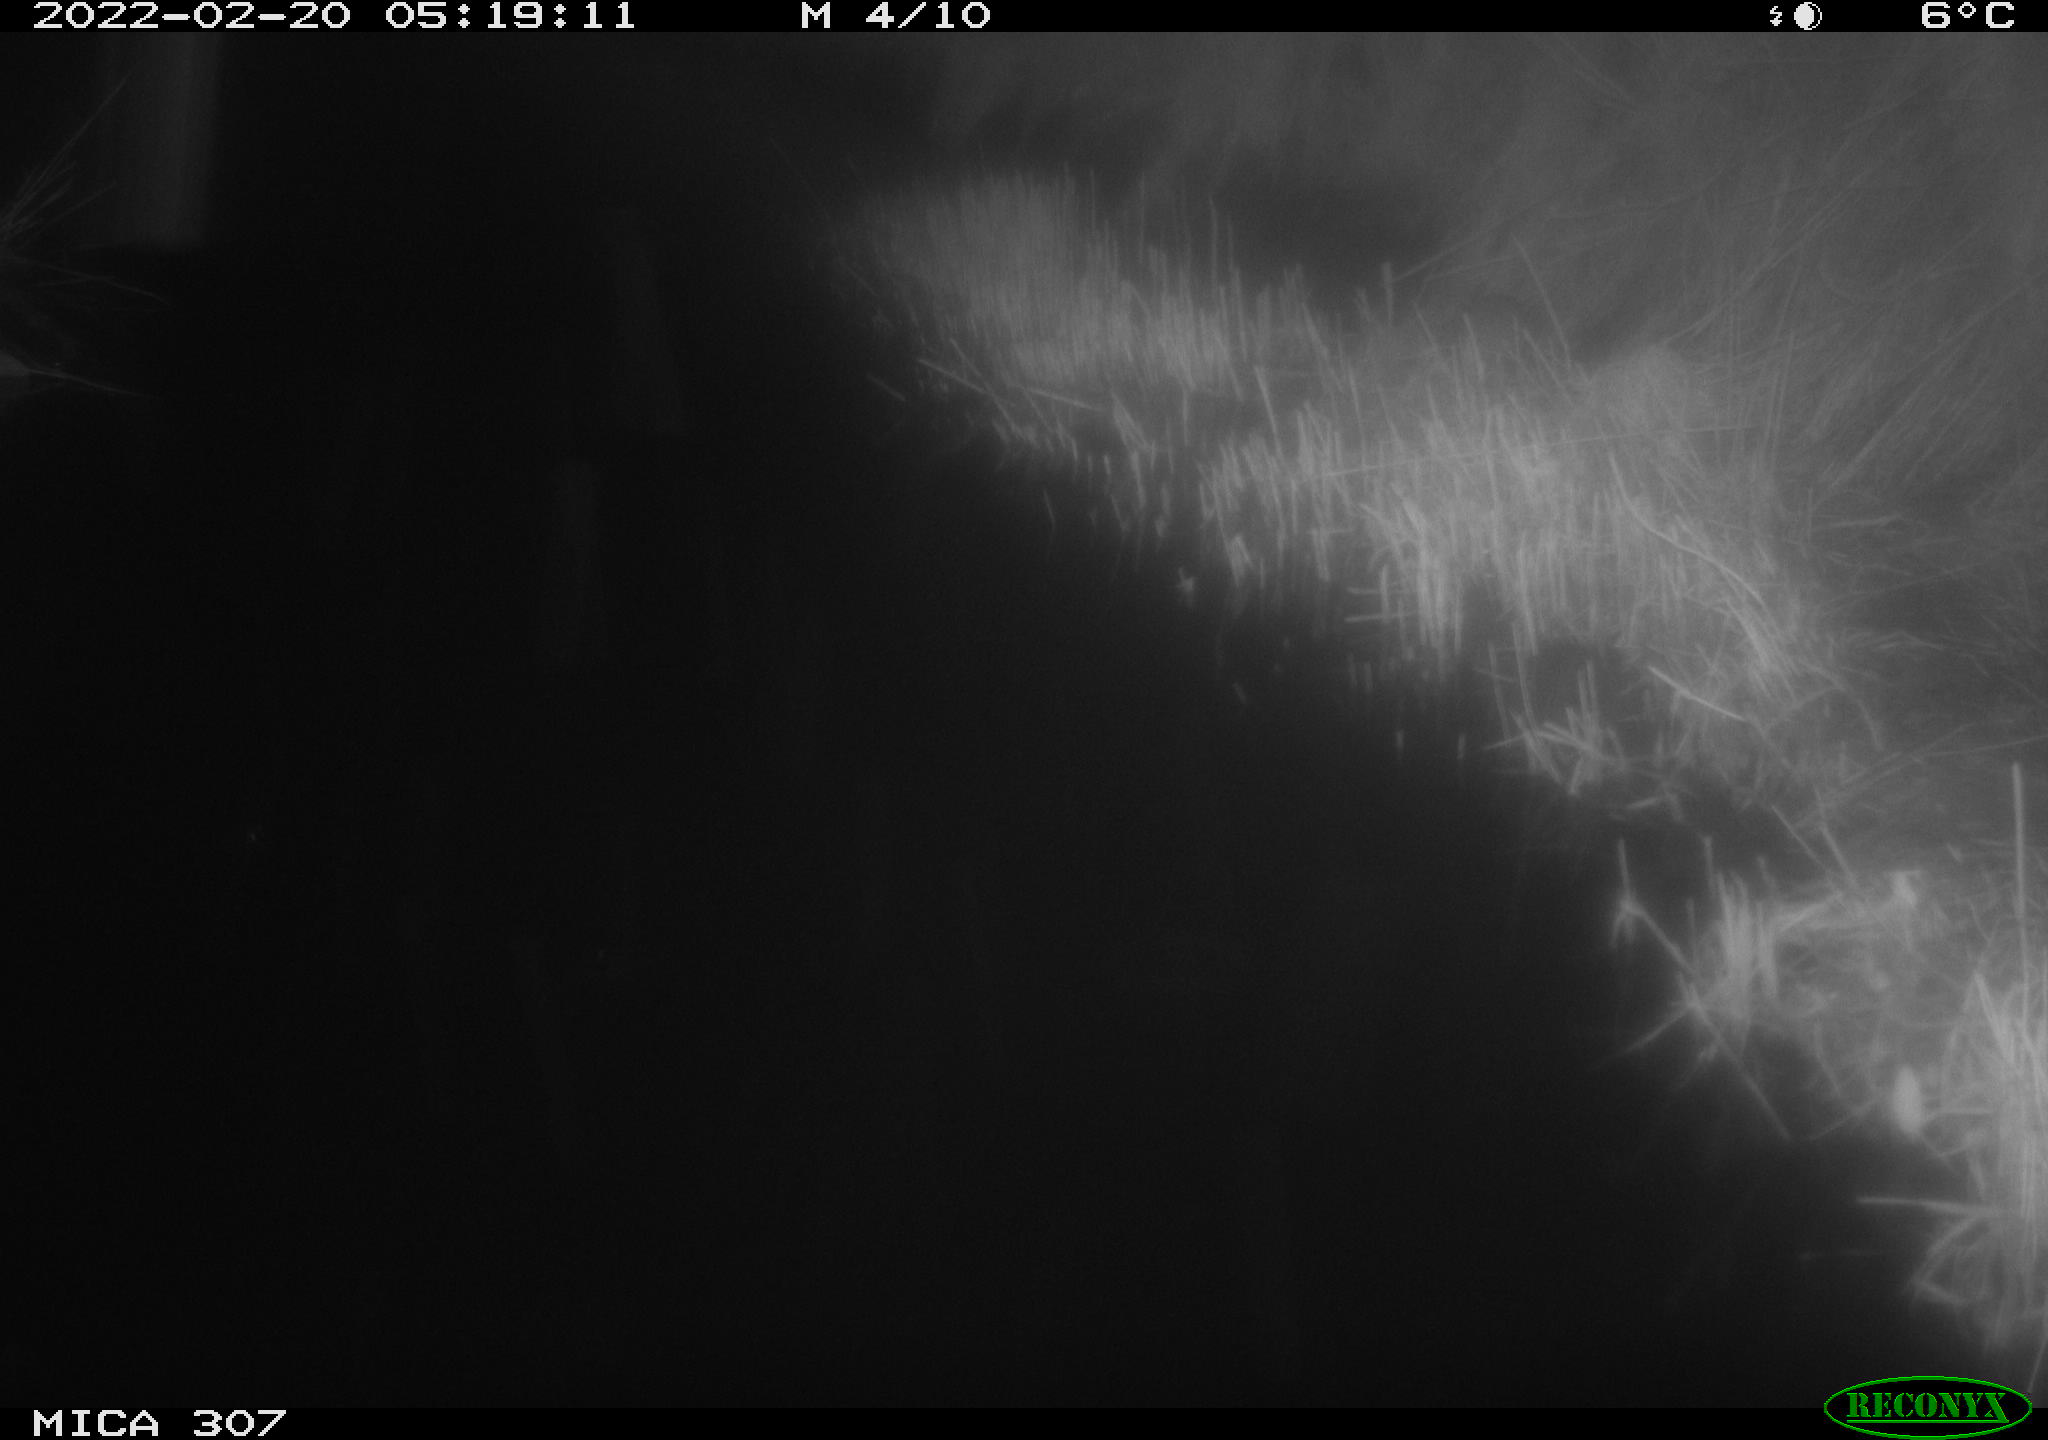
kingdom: Animalia
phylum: Chordata
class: Mammalia
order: Rodentia
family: Muridae
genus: Rattus
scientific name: Rattus norvegicus
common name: Brown rat
